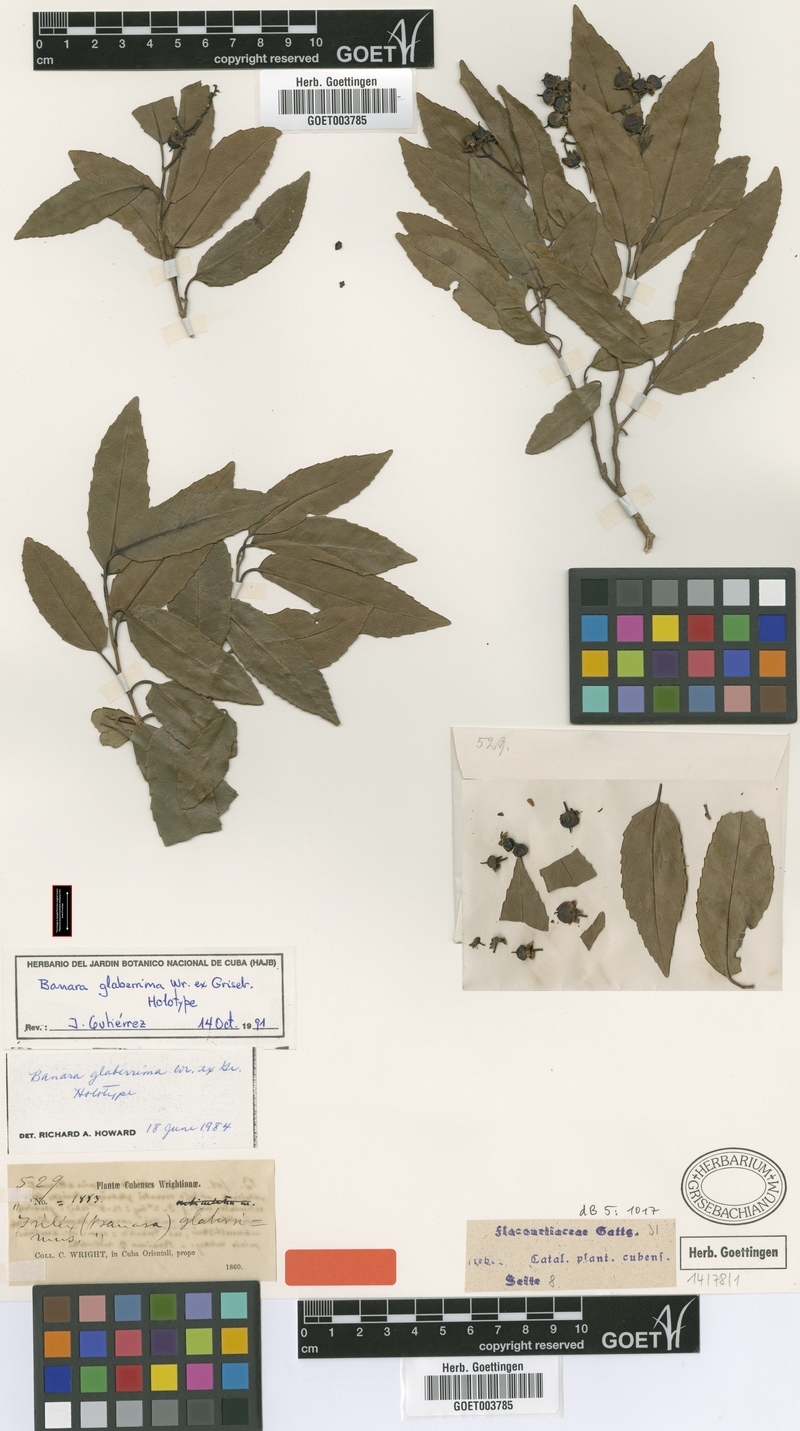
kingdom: Plantae
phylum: Tracheophyta
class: Magnoliopsida
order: Malpighiales
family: Salicaceae
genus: Banara
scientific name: Banara minutiflora
